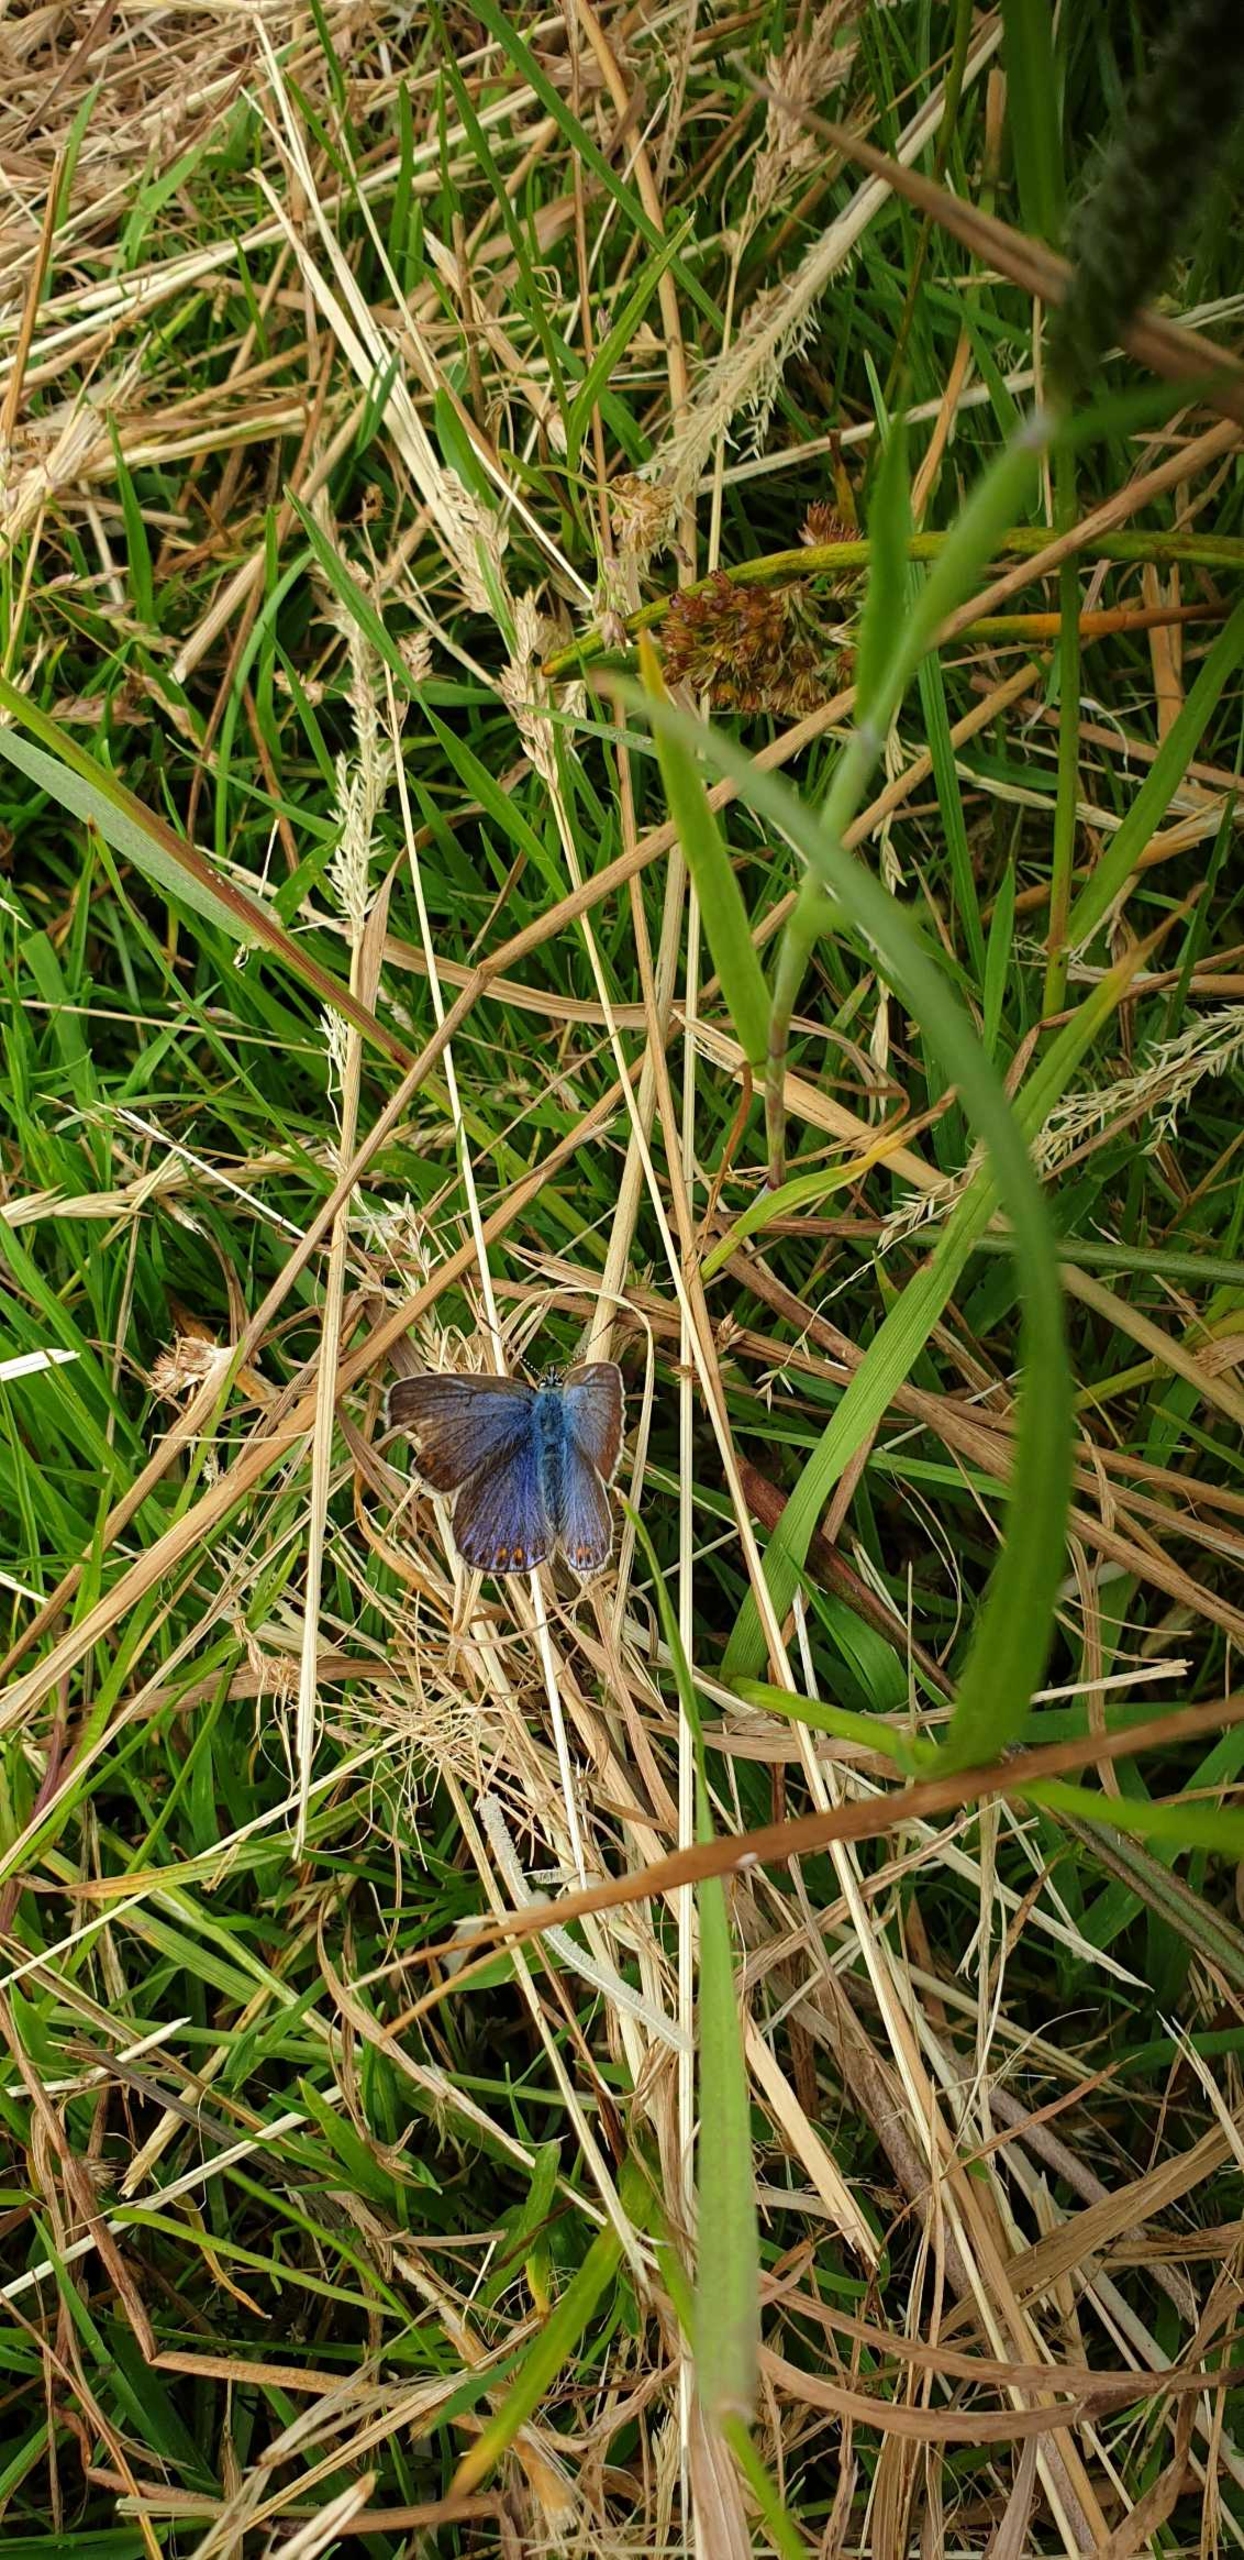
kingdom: Animalia
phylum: Arthropoda
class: Insecta
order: Lepidoptera
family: Lycaenidae
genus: Polyommatus
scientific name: Polyommatus icarus
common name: Almindelig blåfugl
